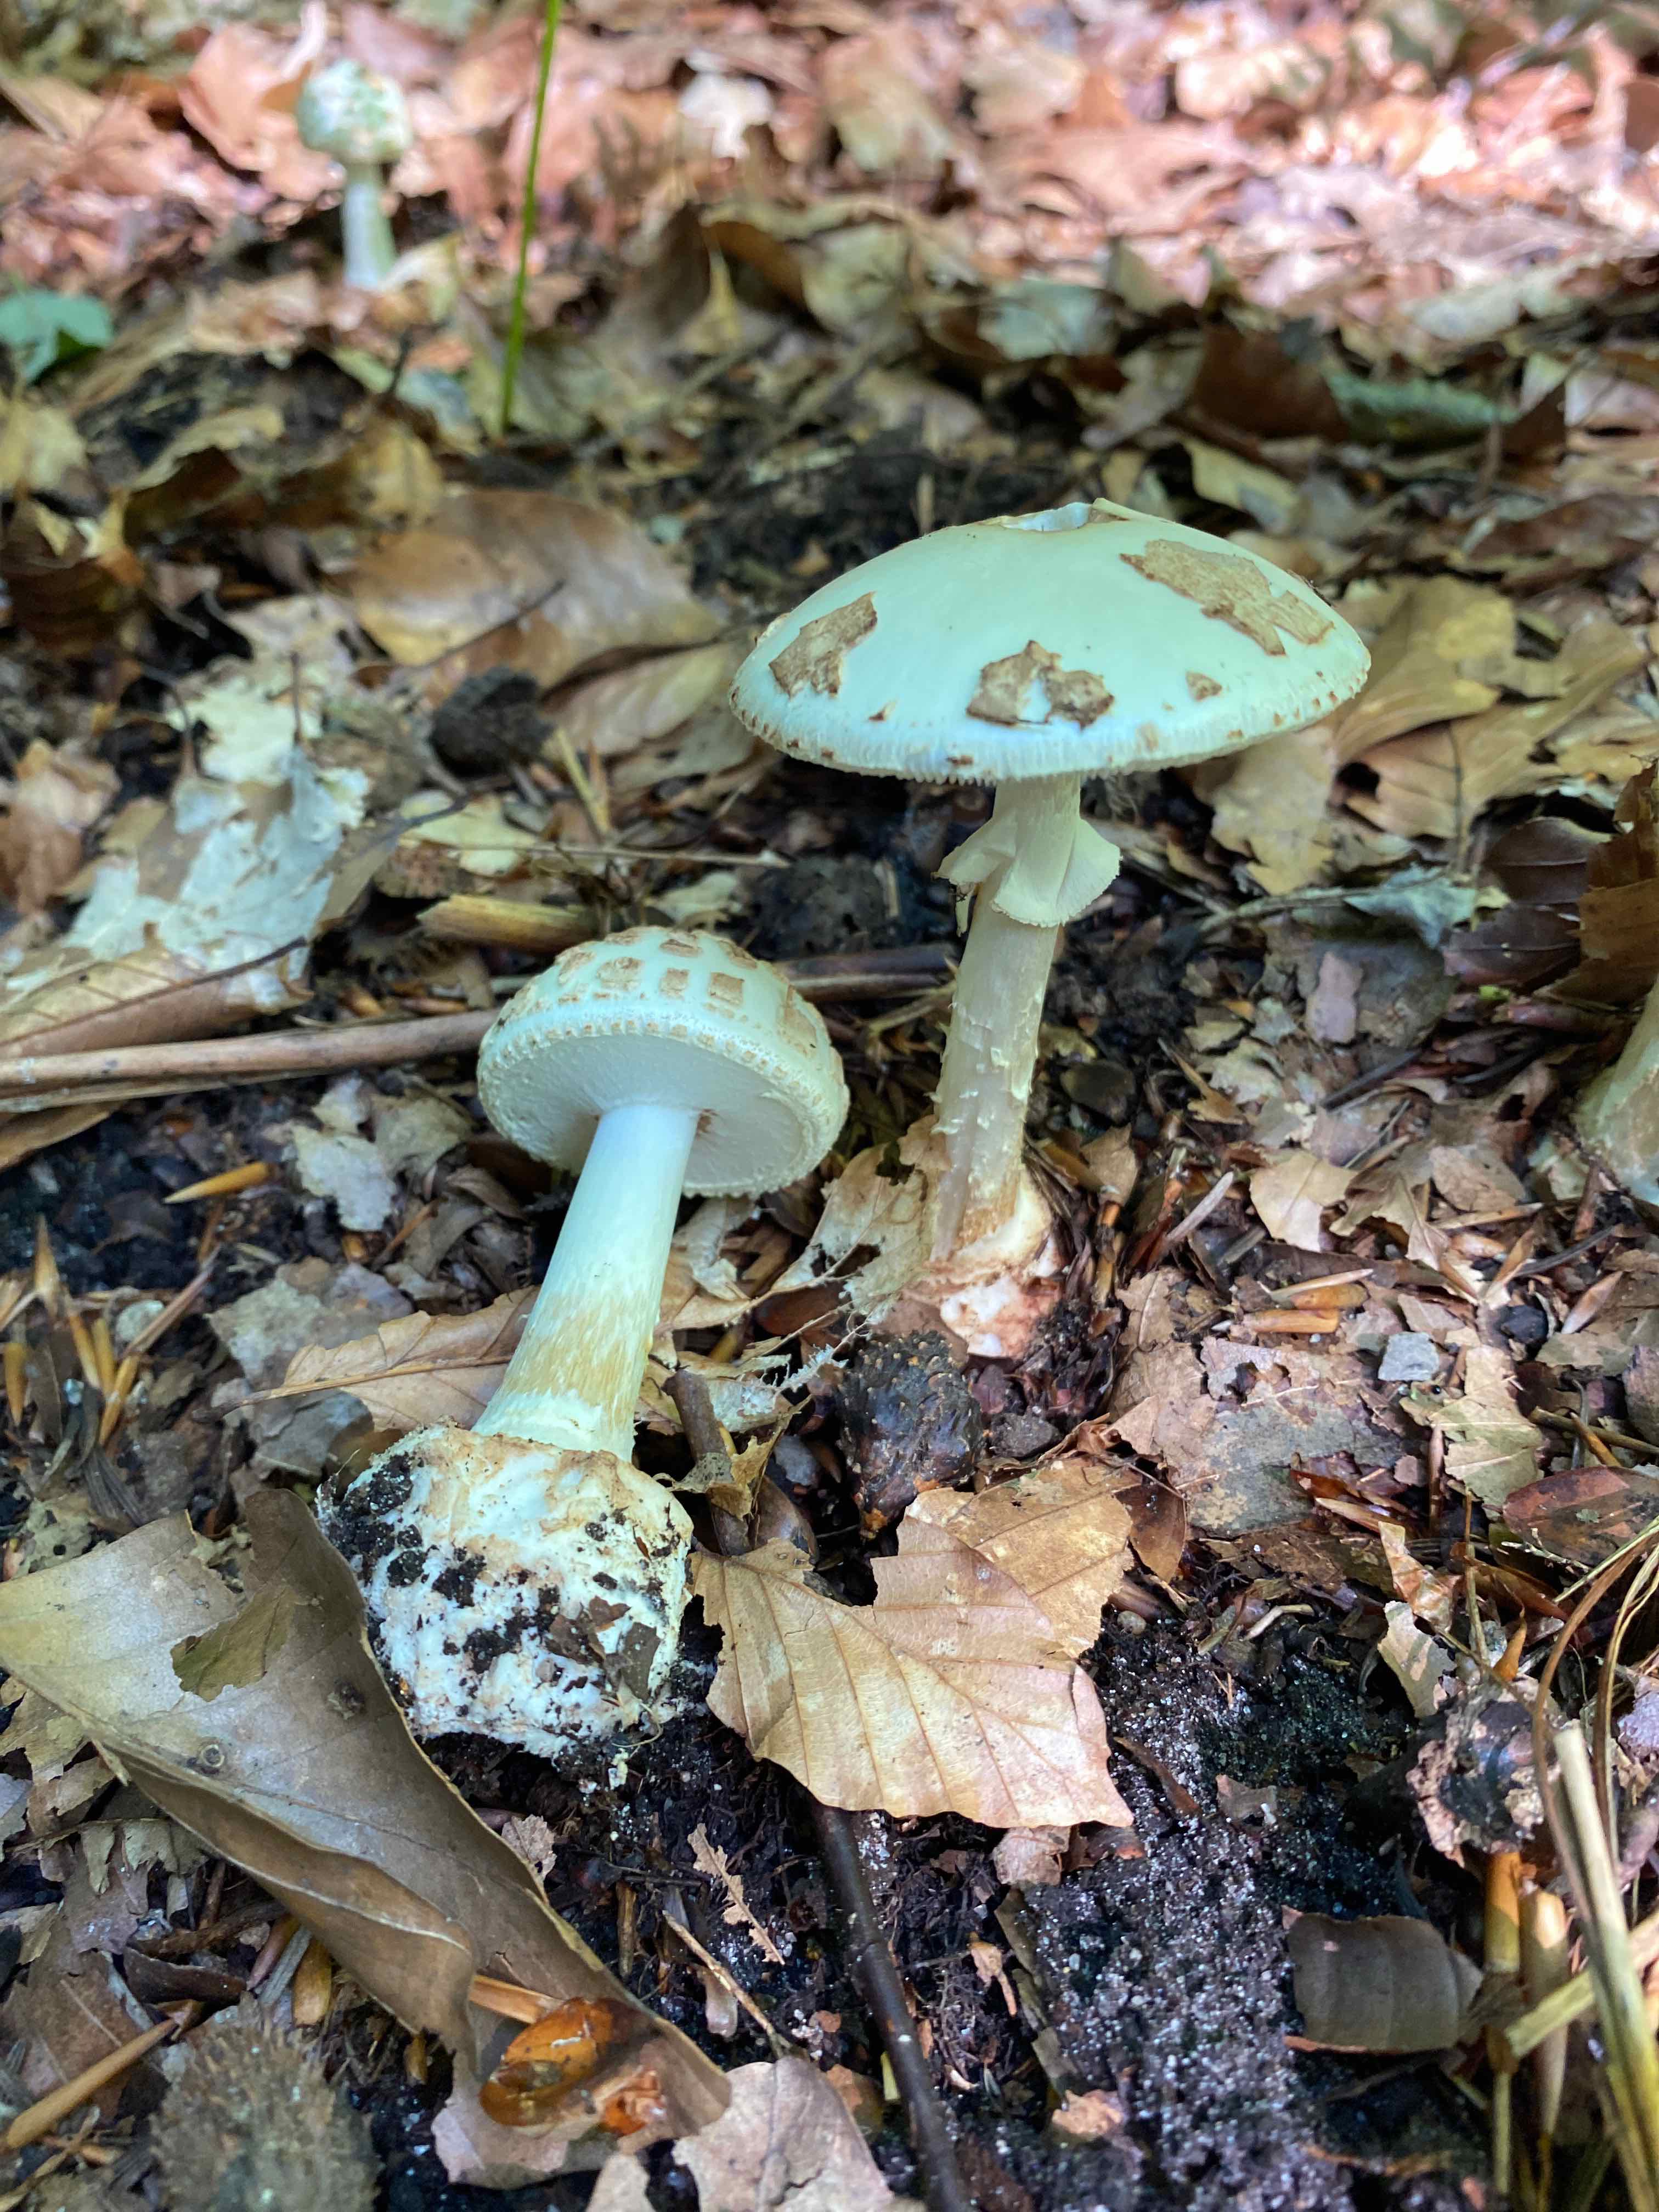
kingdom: Fungi
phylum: Basidiomycota
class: Agaricomycetes
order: Agaricales
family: Amanitaceae
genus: Amanita
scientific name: Amanita citrina
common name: kugleknoldet fluesvamp
